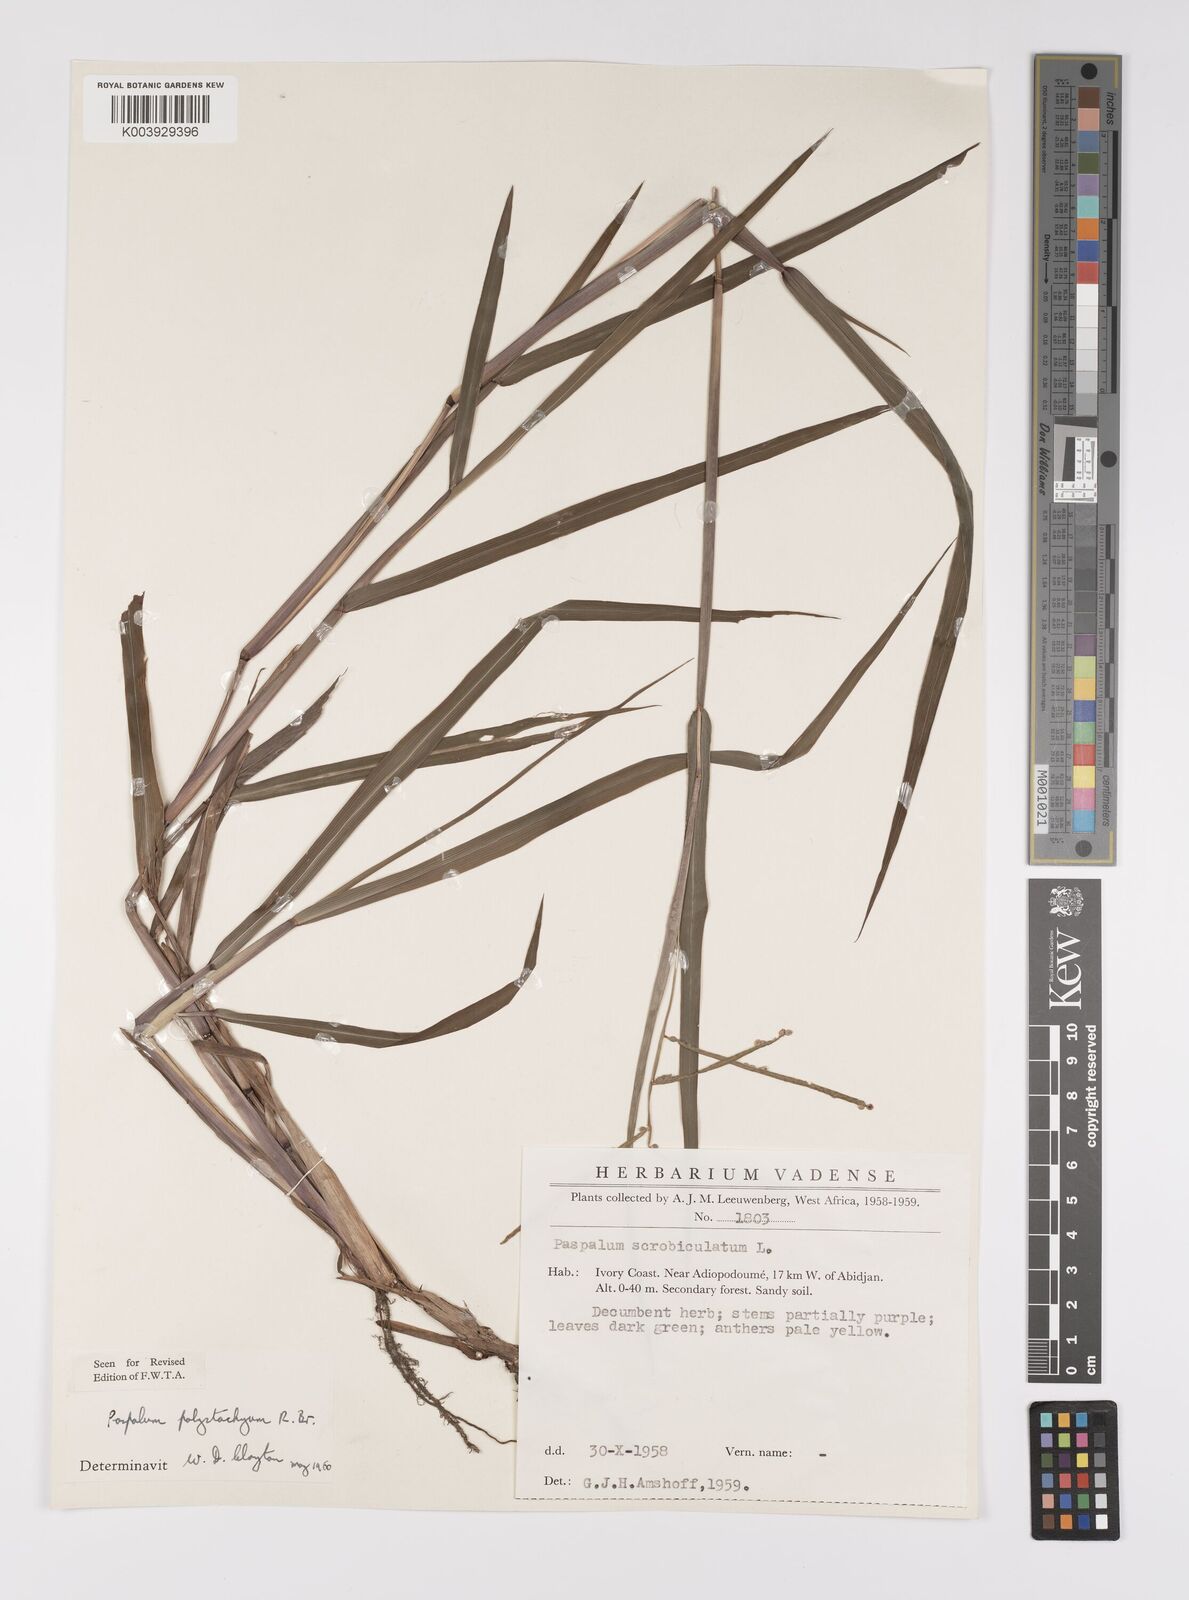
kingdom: Plantae
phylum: Tracheophyta
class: Liliopsida
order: Poales
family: Poaceae
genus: Paspalum
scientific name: Paspalum scrobiculatum
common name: Kodo millet
